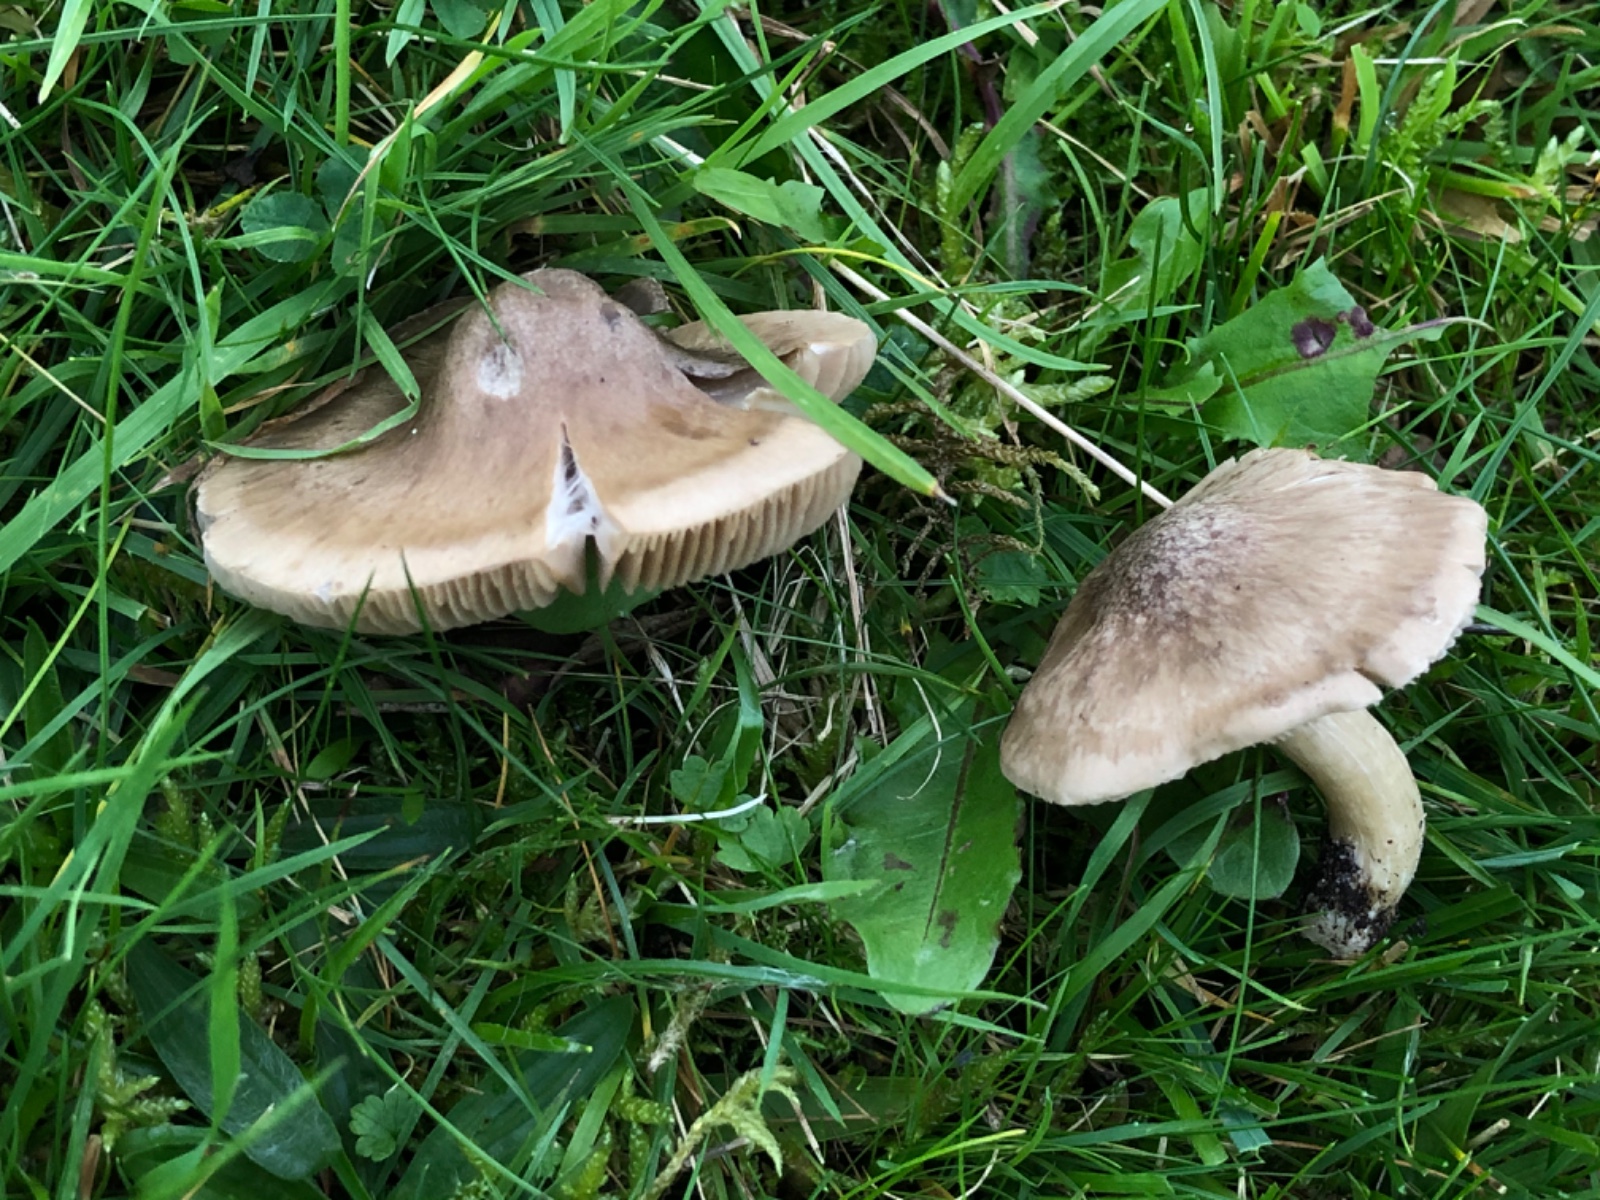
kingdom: Fungi
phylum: Basidiomycota
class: Agaricomycetes
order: Agaricales
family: Entolomataceae
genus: Entoloma
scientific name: Entoloma prunuloides
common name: mel-rødblad
